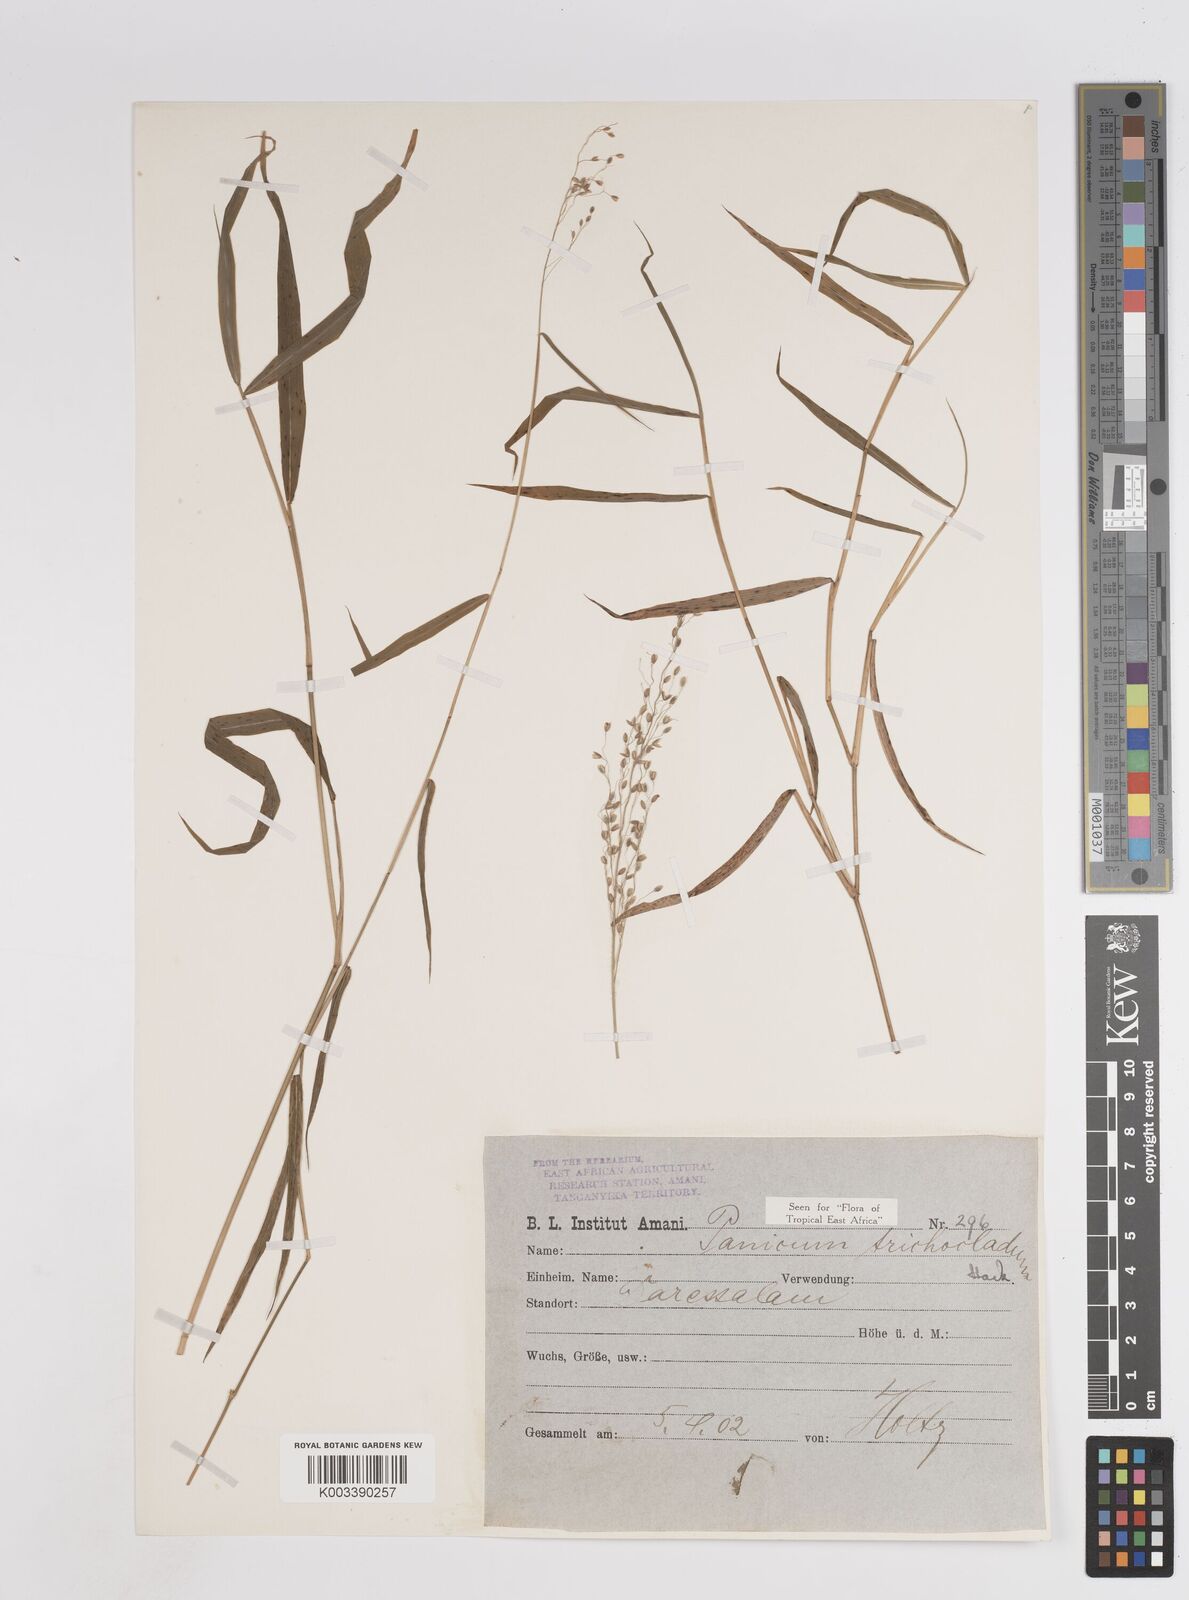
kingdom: Plantae
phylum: Tracheophyta
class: Liliopsida
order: Poales
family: Poaceae
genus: Panicum
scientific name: Panicum trichocladum
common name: Donkey grass
